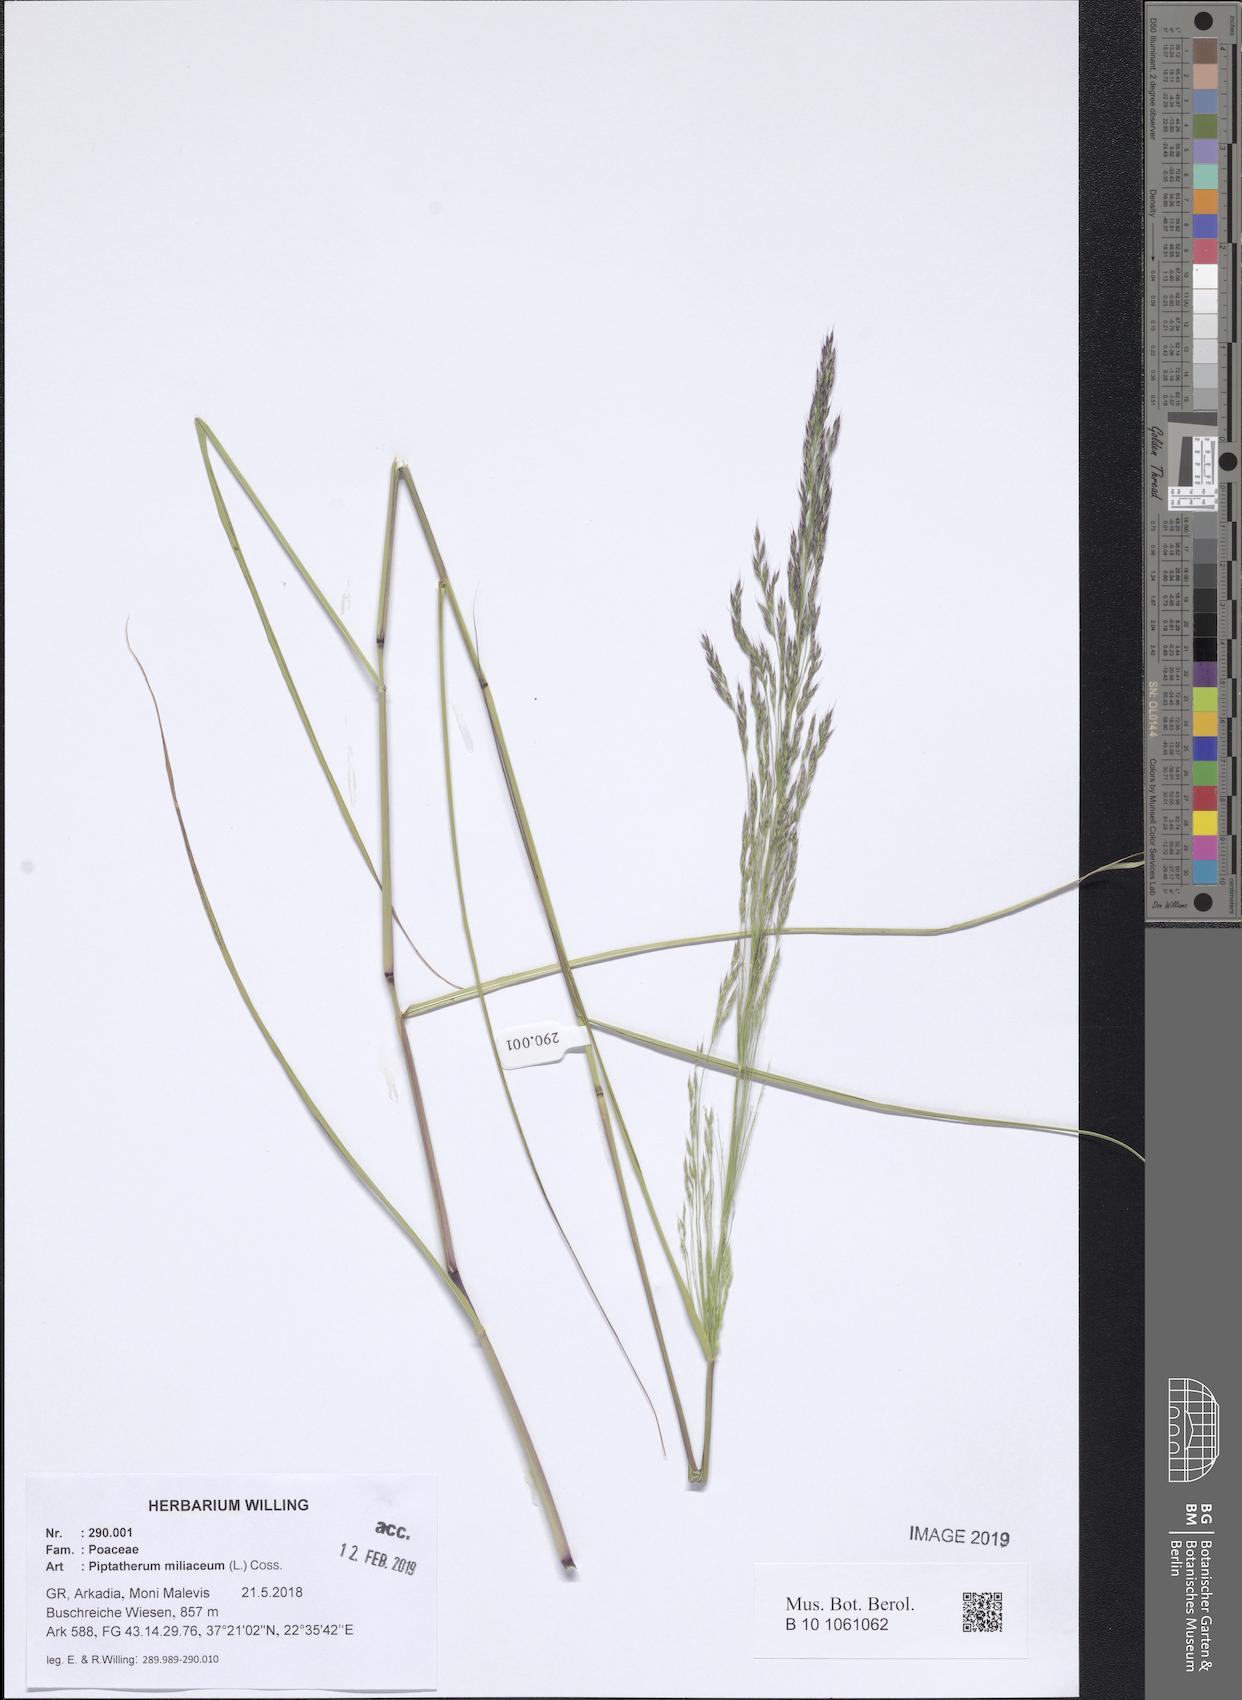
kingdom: Plantae
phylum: Tracheophyta
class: Liliopsida
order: Poales
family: Poaceae
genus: Oloptum
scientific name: Oloptum miliaceum
